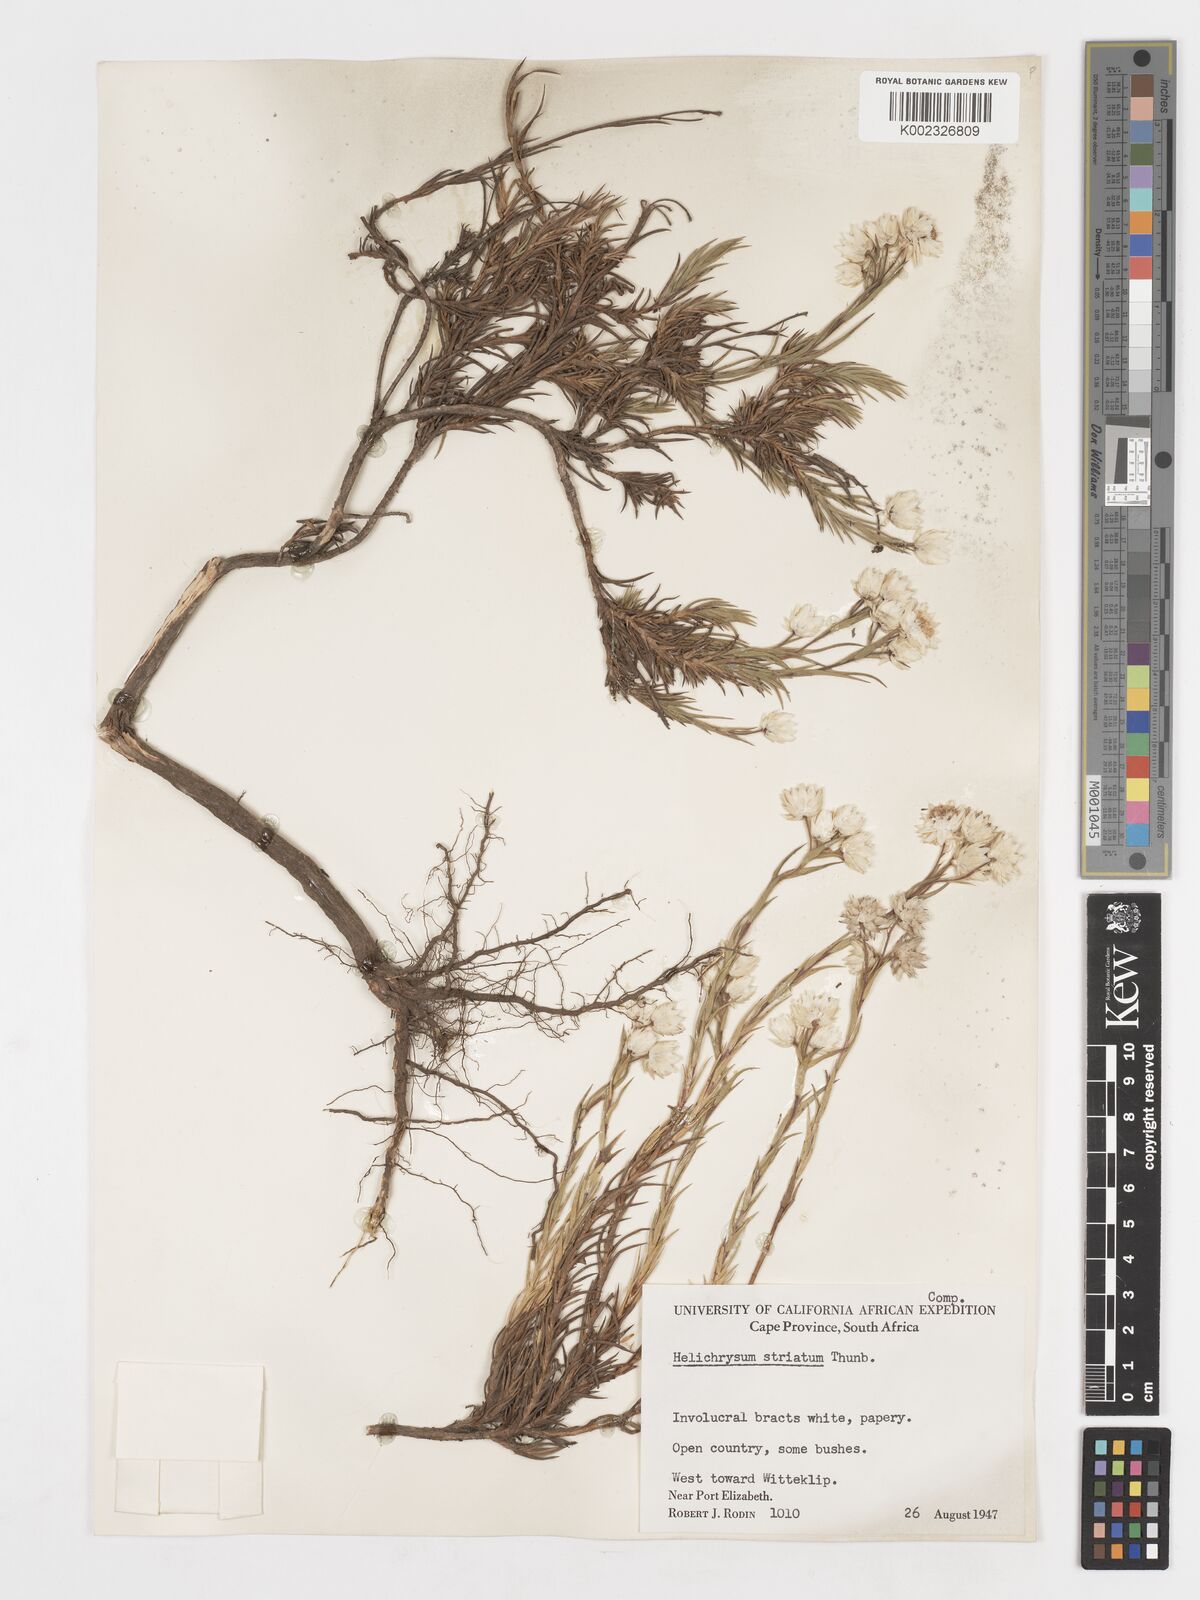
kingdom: Plantae
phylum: Tracheophyta
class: Magnoliopsida
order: Asterales
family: Asteraceae
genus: Achyranthemum
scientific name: Achyranthemum striatum
